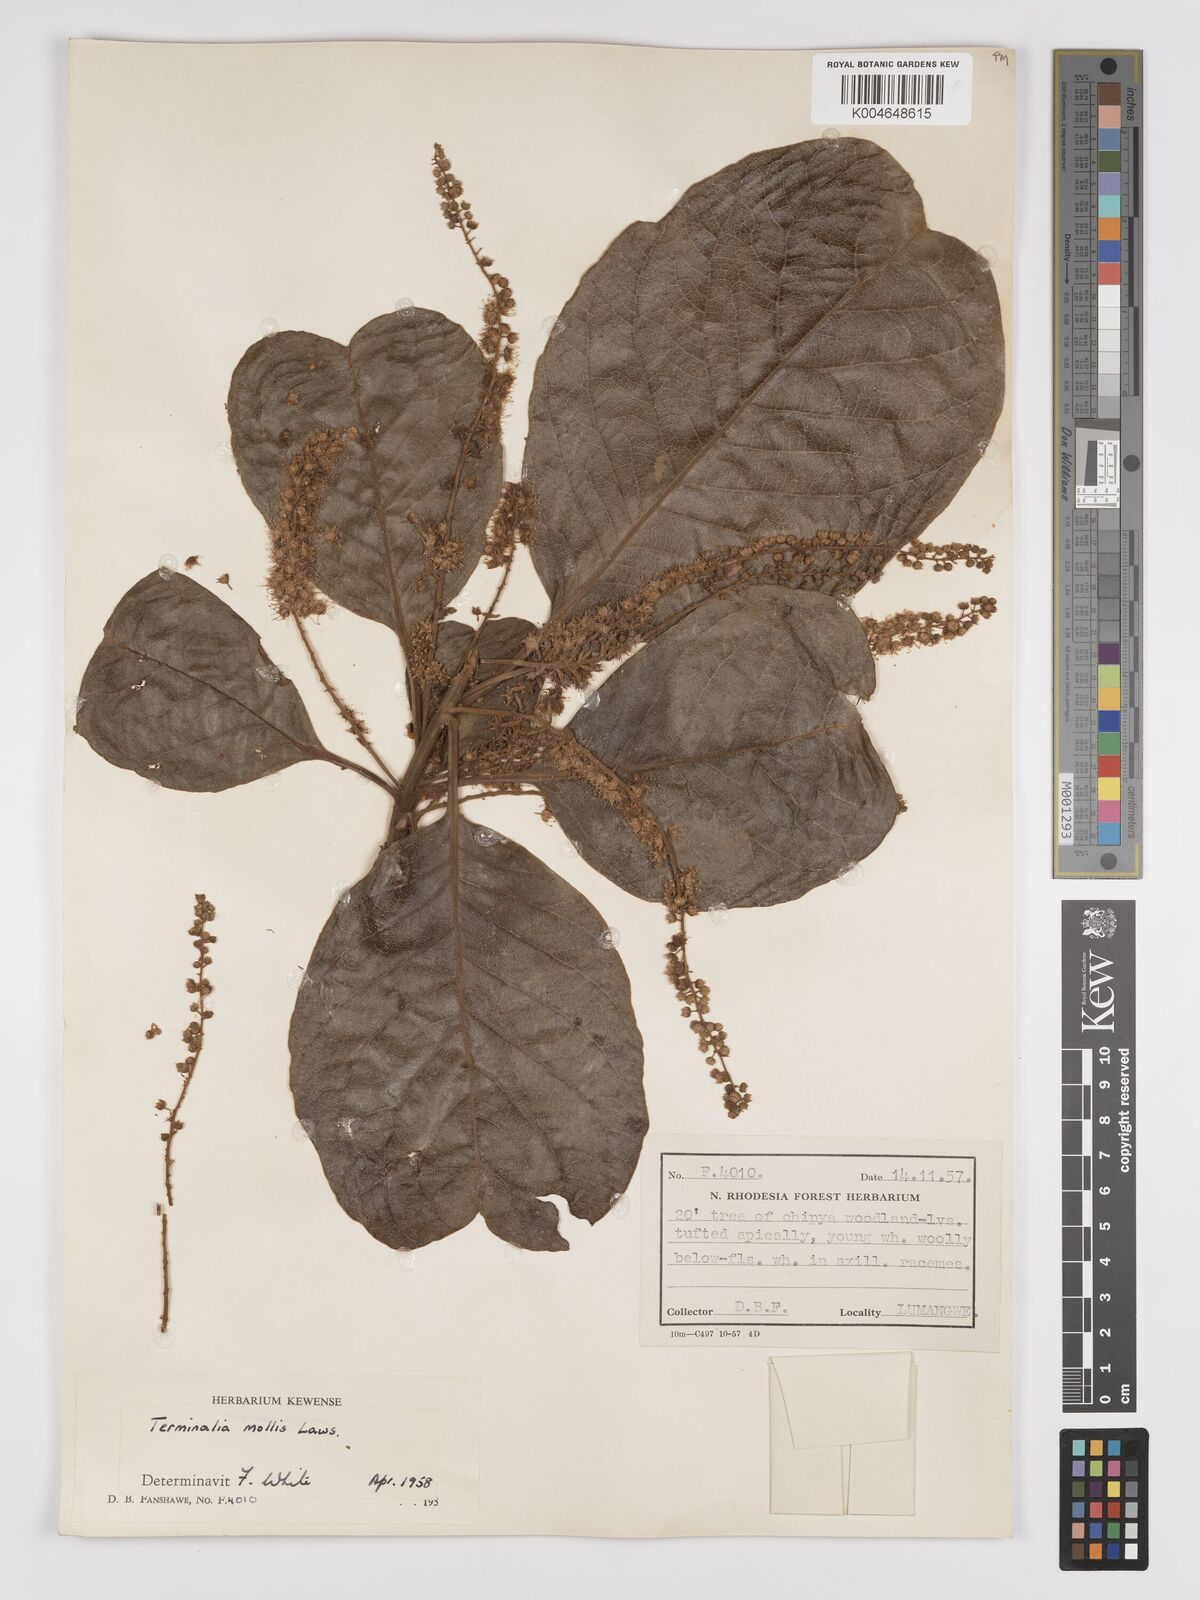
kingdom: Plantae
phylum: Tracheophyta
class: Magnoliopsida
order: Myrtales
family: Combretaceae
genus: Terminalia
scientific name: Terminalia
